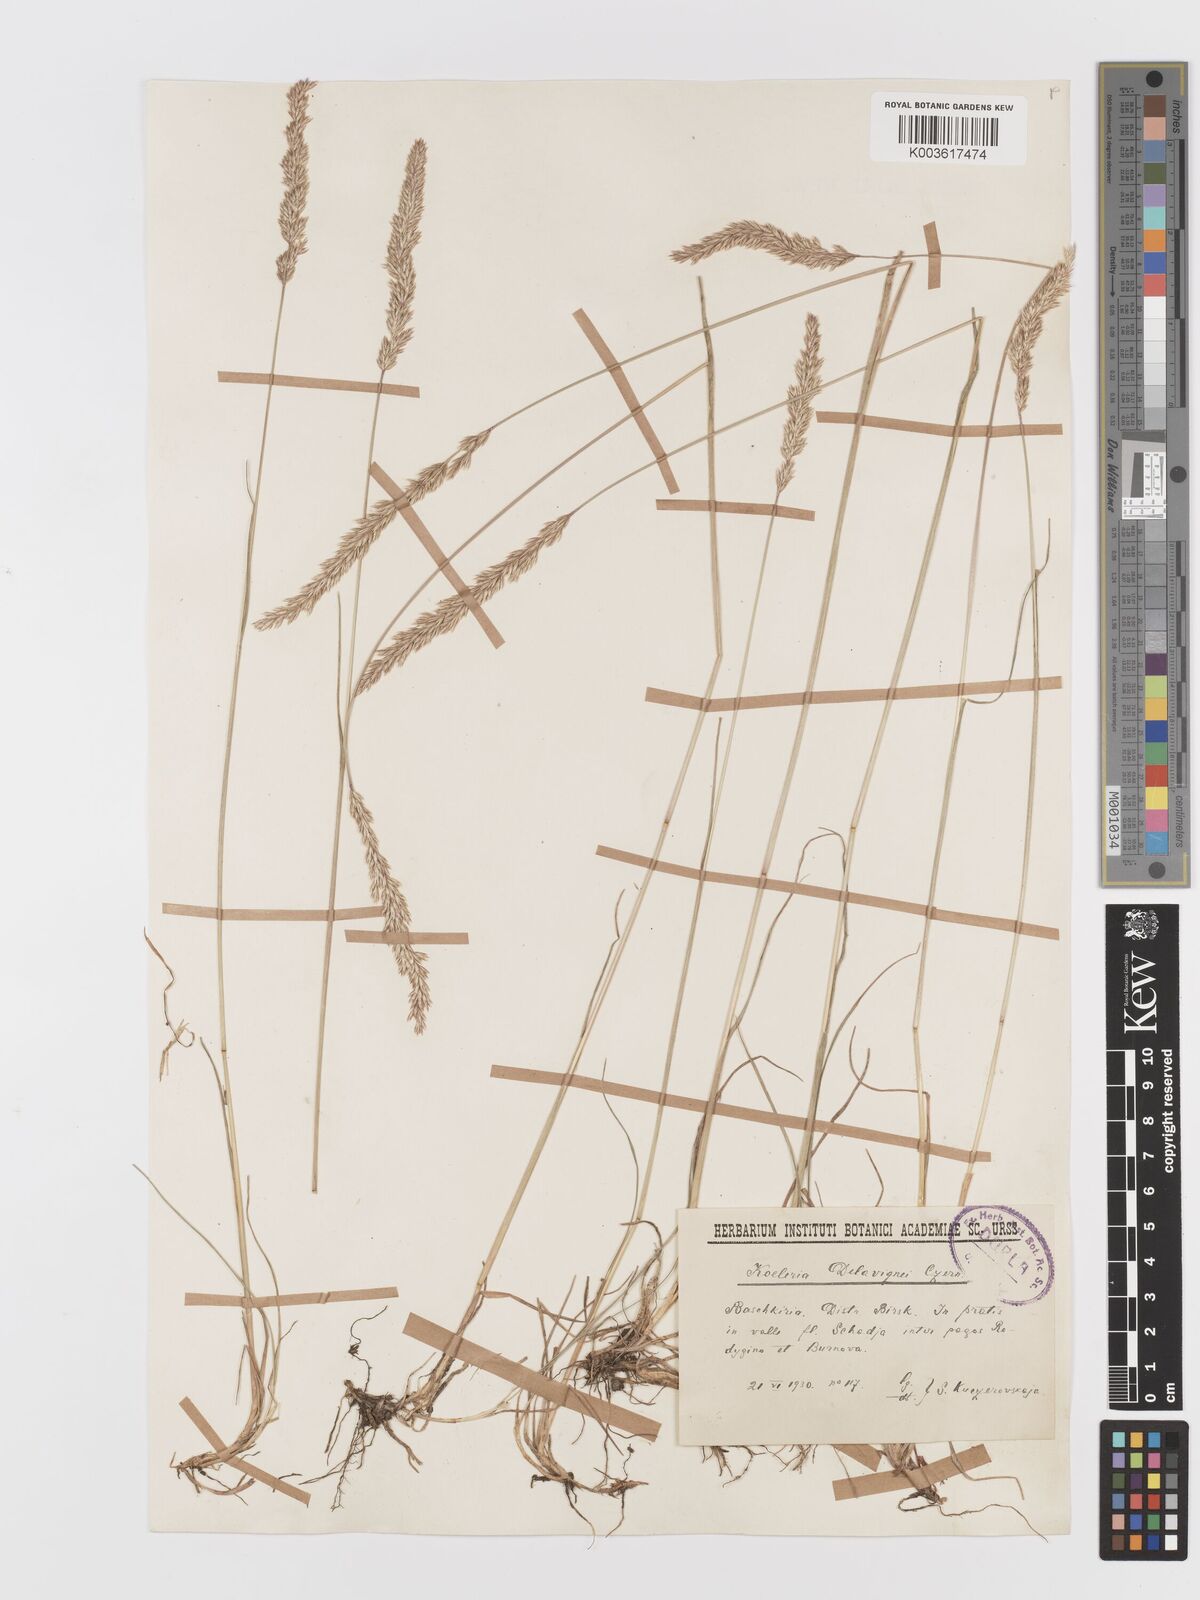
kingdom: Plantae
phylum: Tracheophyta
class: Liliopsida
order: Poales
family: Poaceae
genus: Koeleria
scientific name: Koeleria delavignei
